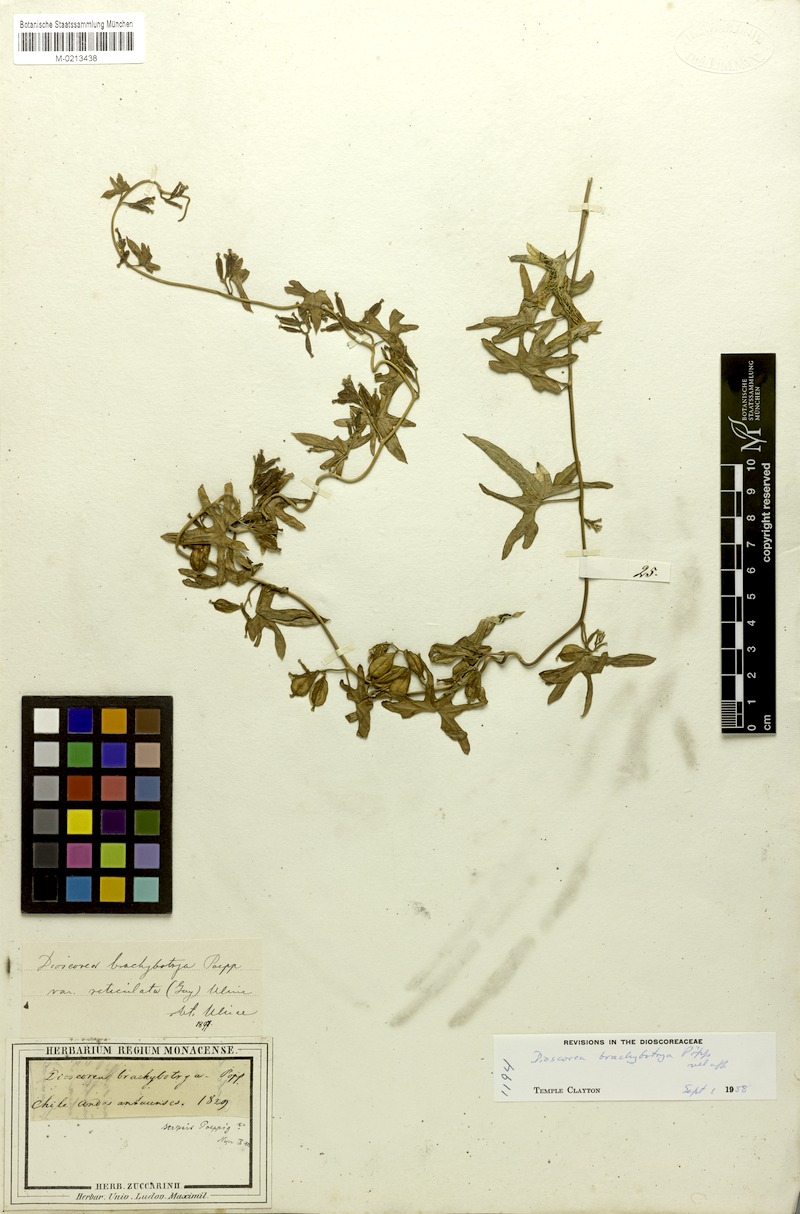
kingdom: Plantae
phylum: Tracheophyta
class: Liliopsida
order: Dioscoreales
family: Dioscoreaceae
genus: Dioscorea
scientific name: Dioscorea brachybotrya
